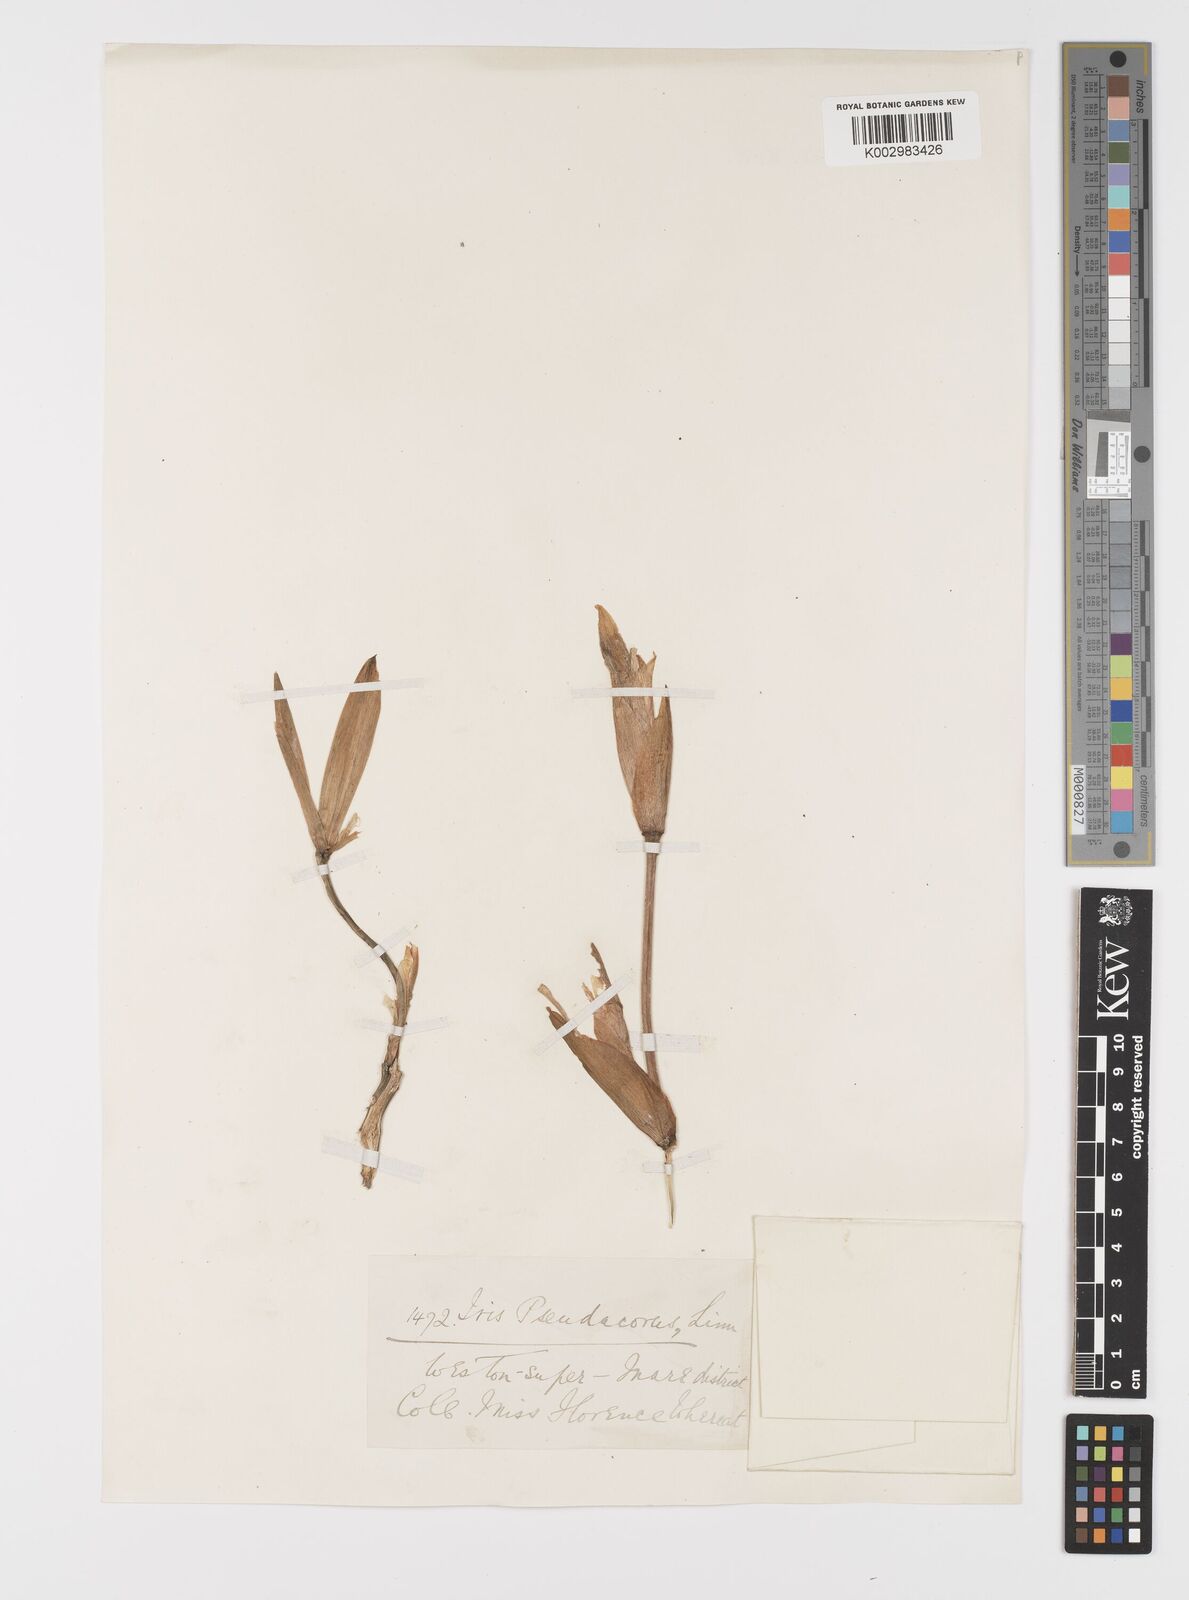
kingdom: Plantae
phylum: Tracheophyta
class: Liliopsida
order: Asparagales
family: Iridaceae
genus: Iris
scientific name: Iris pseudacorus
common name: Yellow flag
